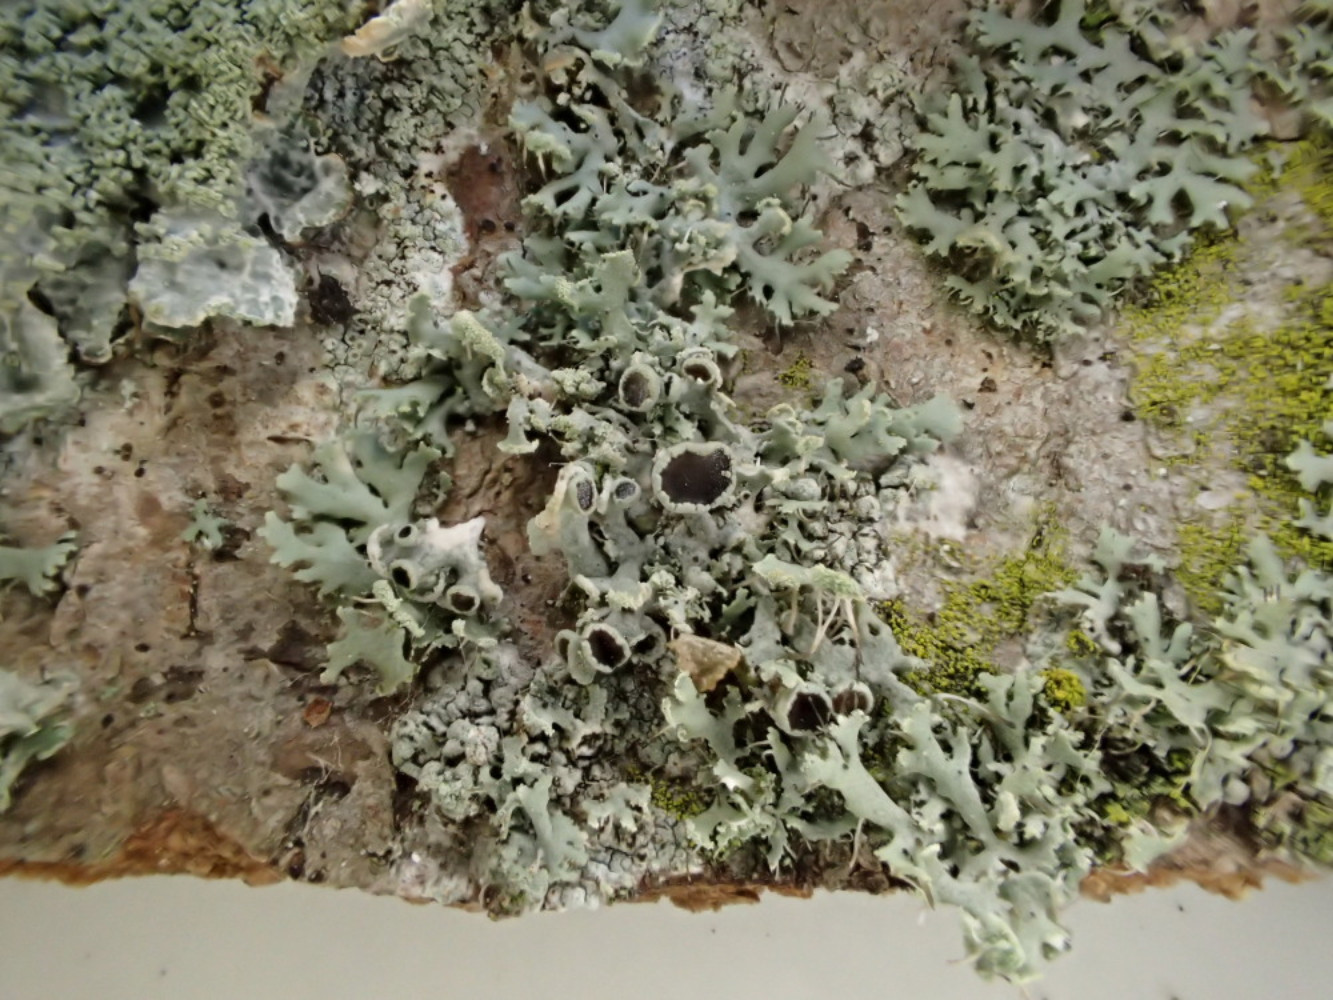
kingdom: Fungi
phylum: Ascomycota
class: Lecanoromycetes
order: Caliciales
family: Physciaceae
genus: Physcia
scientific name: Physcia tenella
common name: spæd rosetlav
